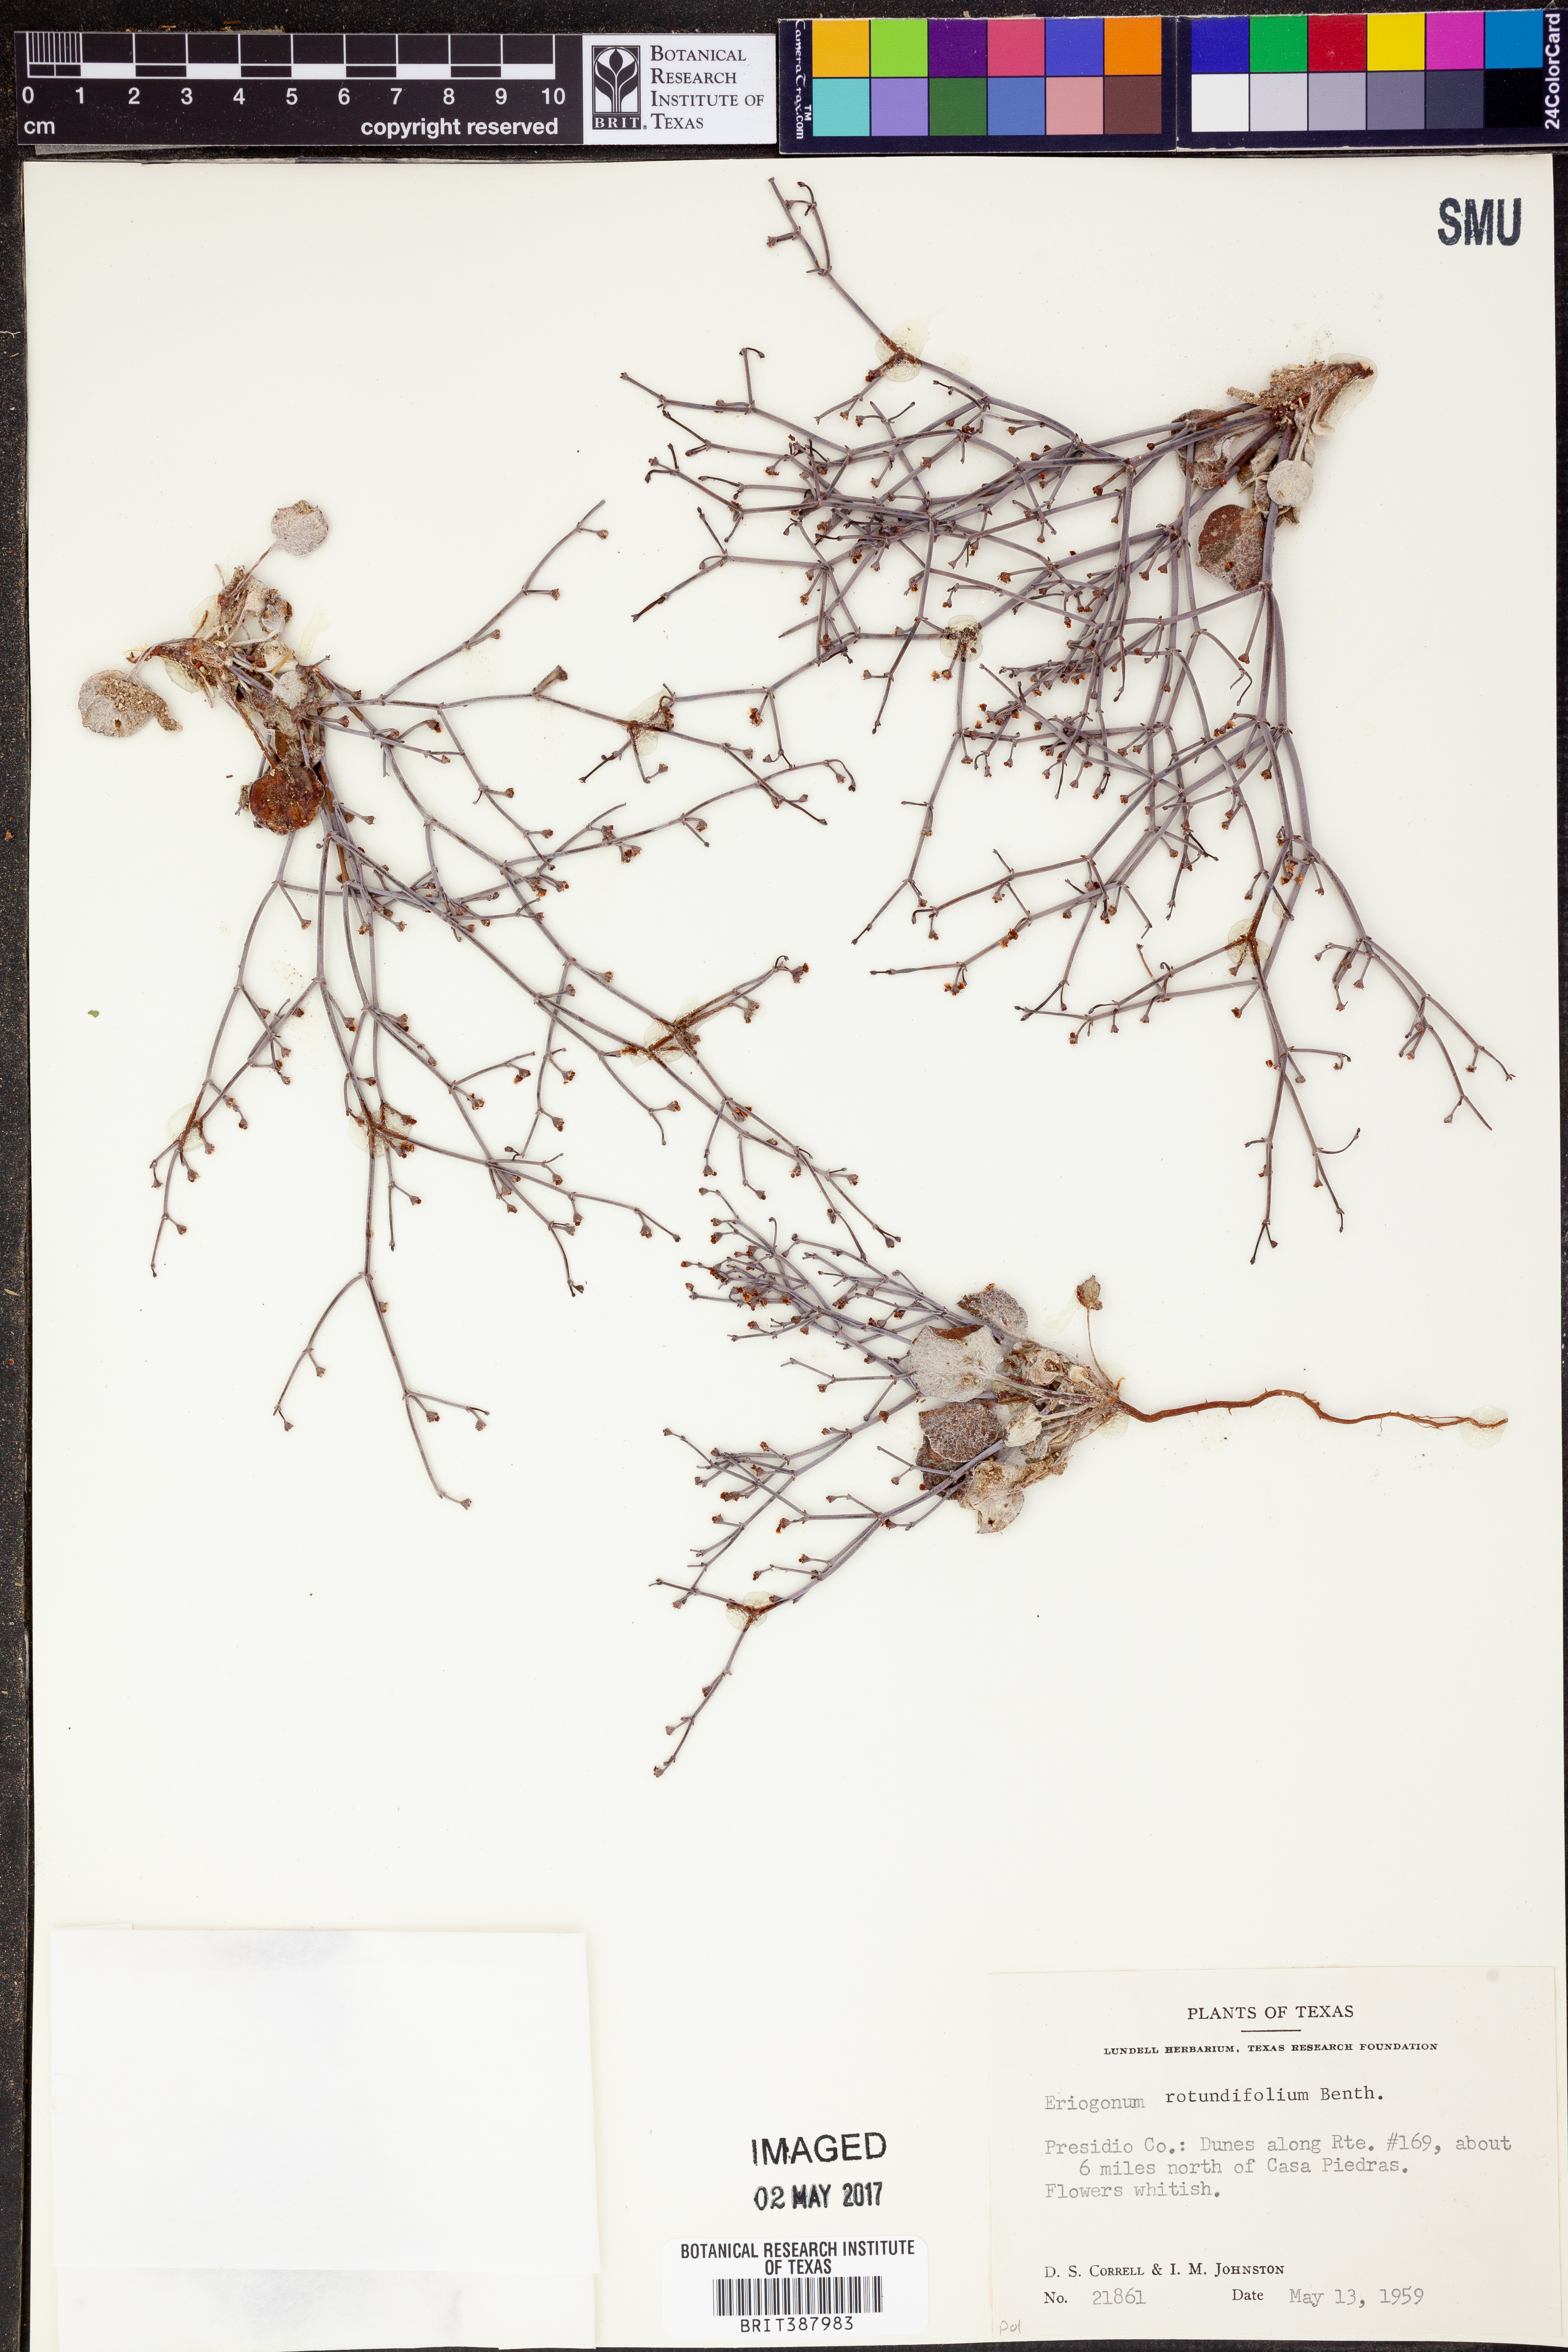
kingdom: Plantae
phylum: Tracheophyta
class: Magnoliopsida
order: Caryophyllales
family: Polygonaceae
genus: Eriogonum
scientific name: Eriogonum rotundifolium
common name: Round-leaf wild buckwheat
